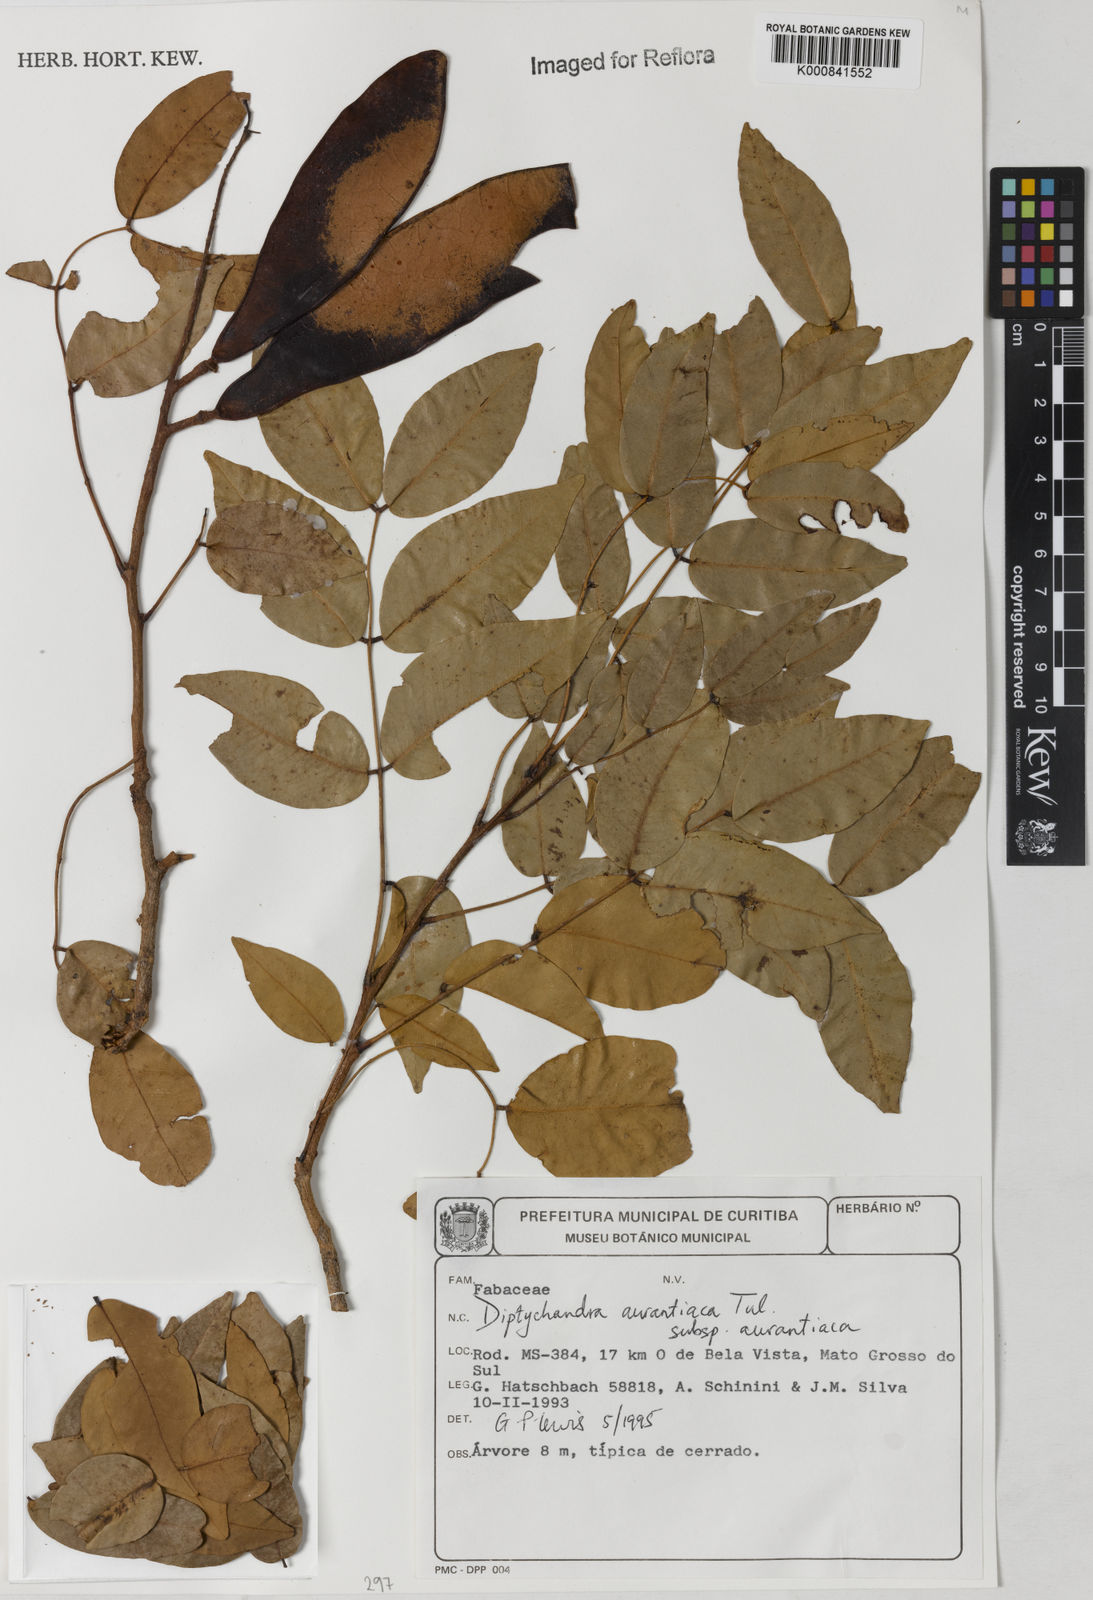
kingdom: Plantae
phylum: Tracheophyta
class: Magnoliopsida
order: Fabales
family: Fabaceae
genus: Diptychandra
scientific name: Diptychandra aurantiaca
